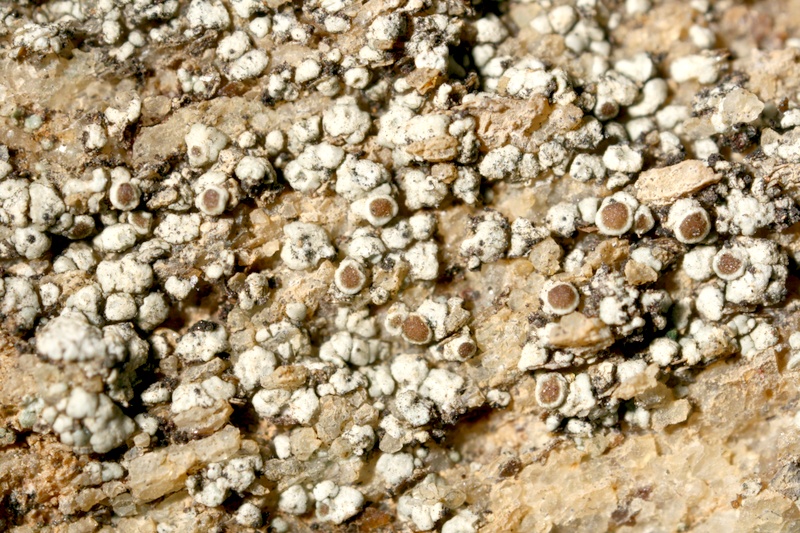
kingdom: Fungi
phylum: Ascomycota
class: Lecanoromycetes
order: Lecanorales
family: Lecanoraceae
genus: Lecanora
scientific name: Lecanora
